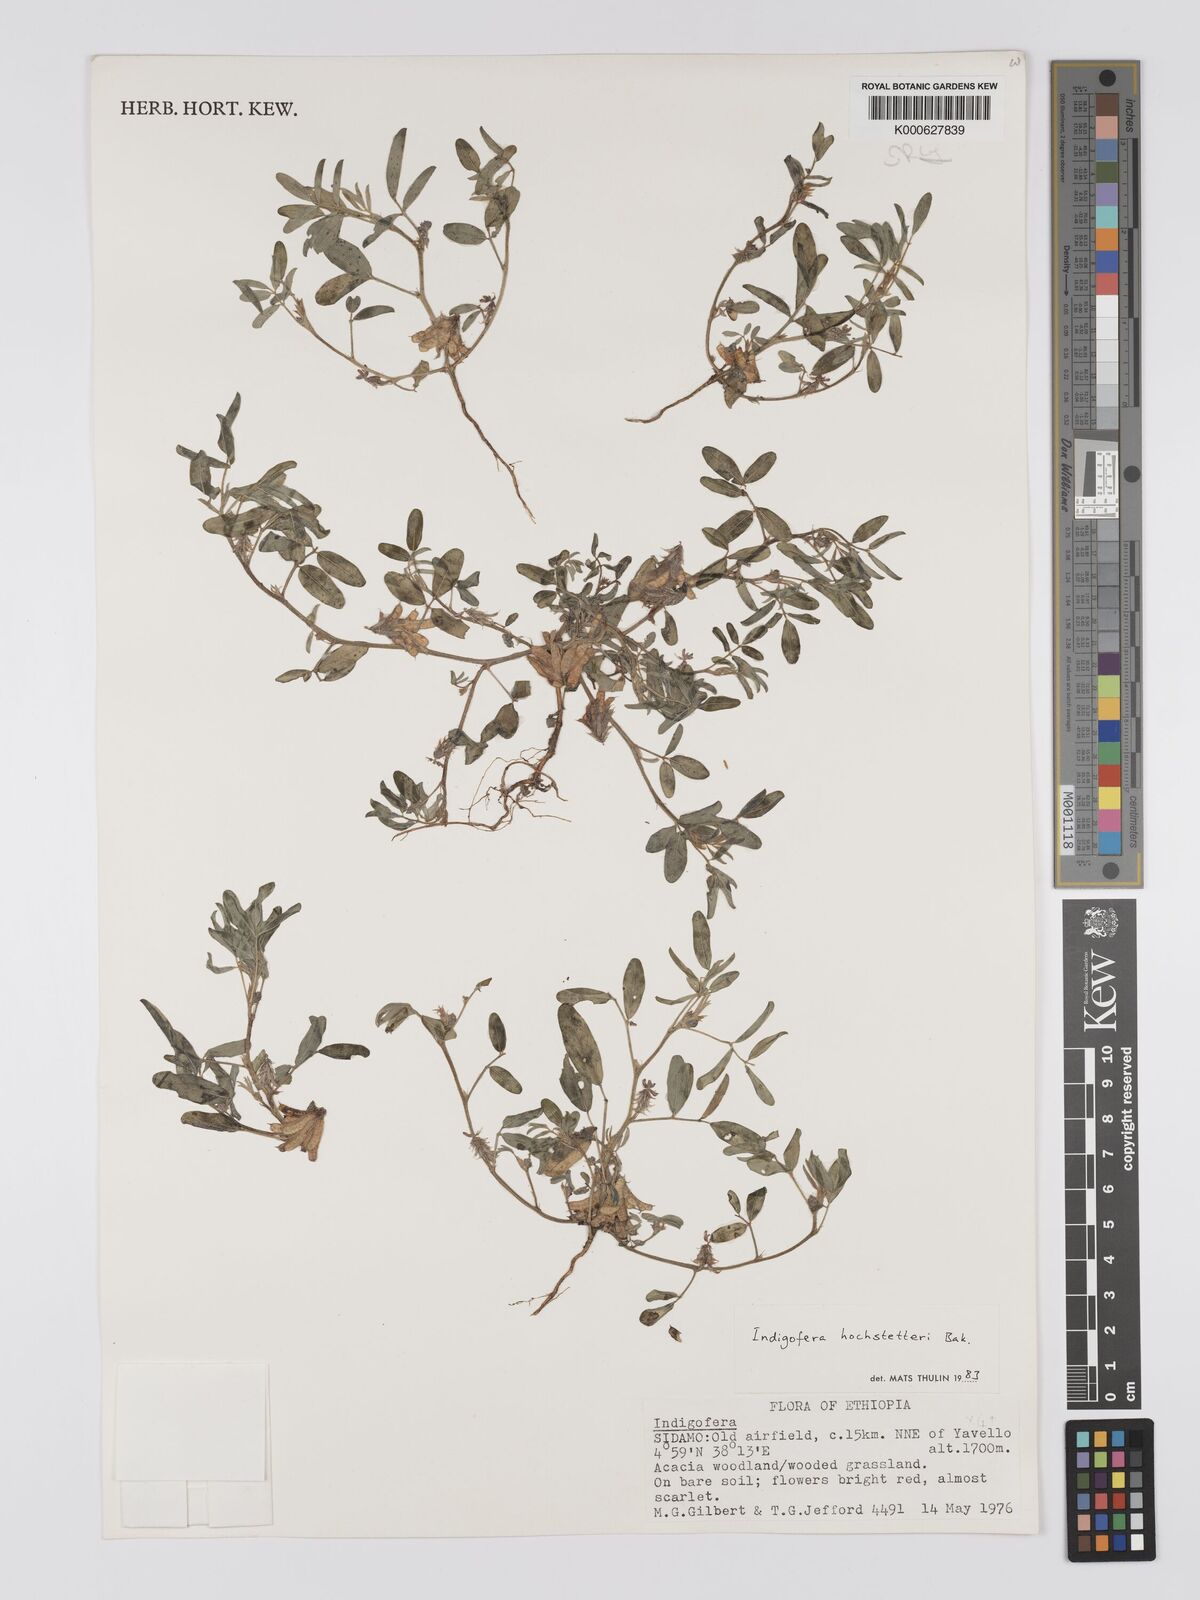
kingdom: Plantae
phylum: Tracheophyta
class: Magnoliopsida
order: Fabales
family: Fabaceae
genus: Indigofera
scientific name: Indigofera hochstetteri
